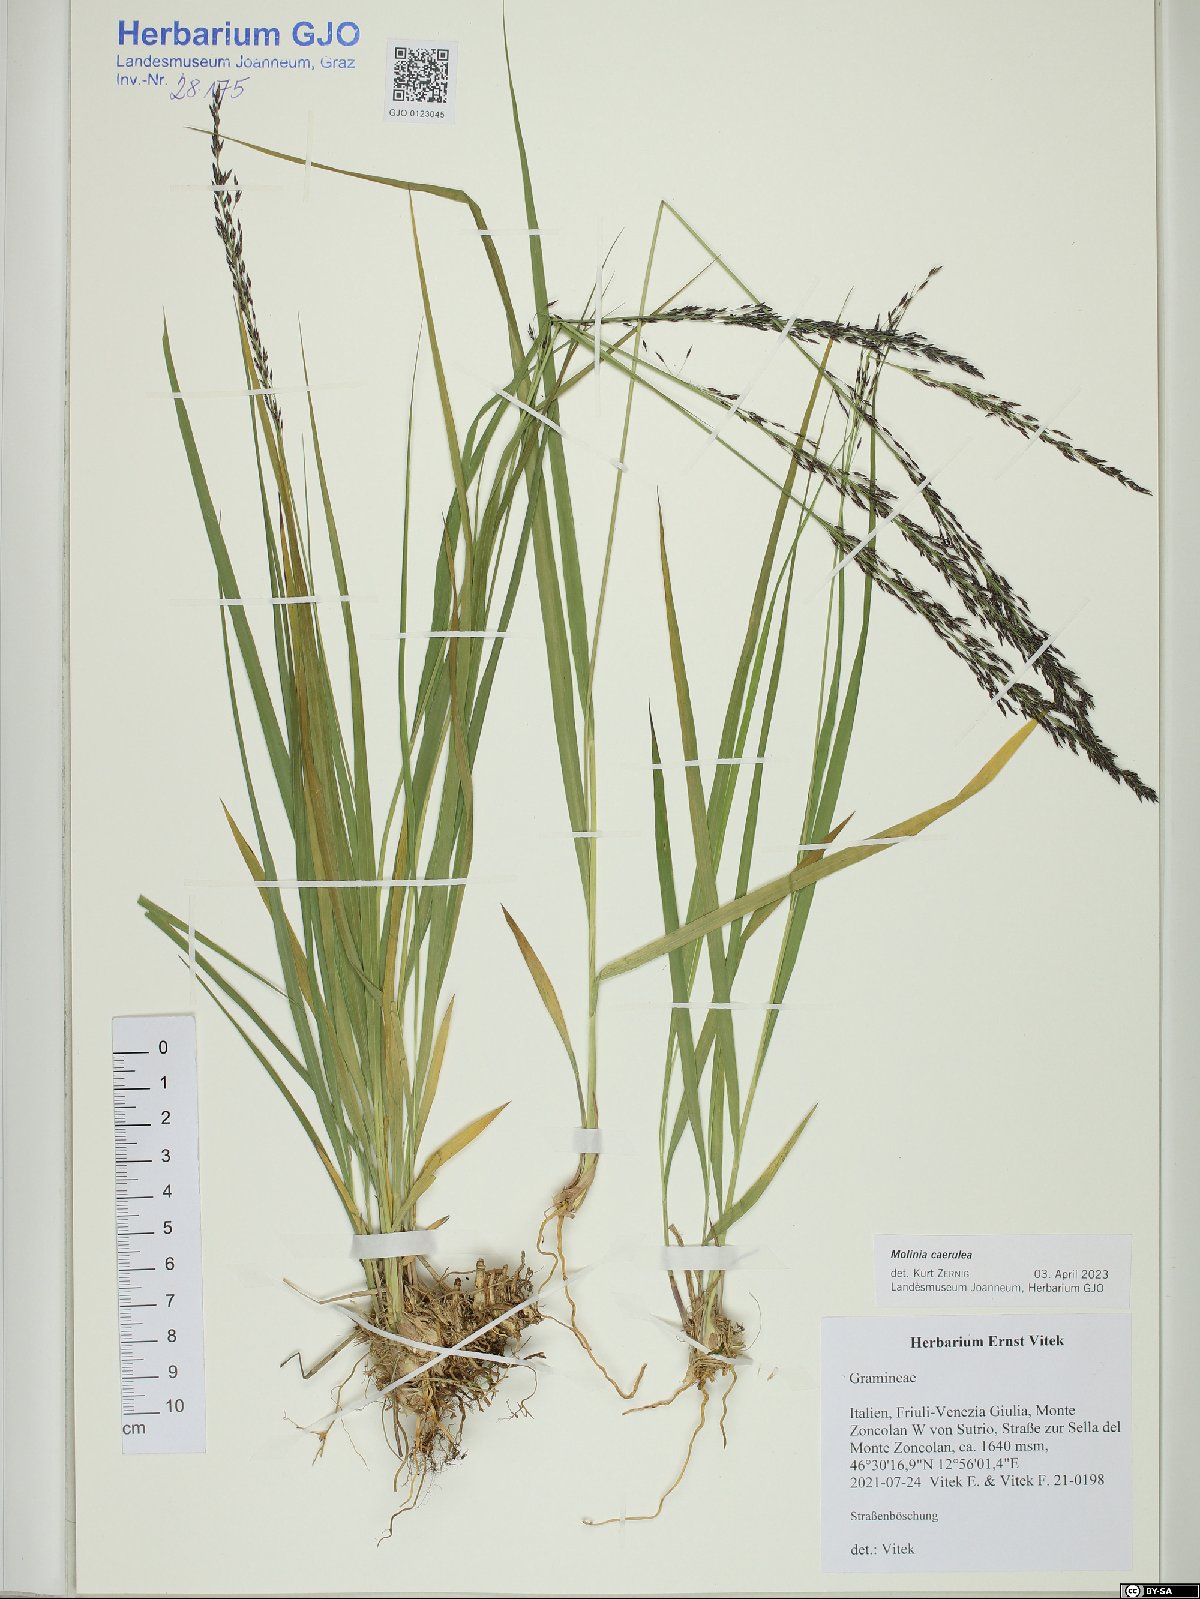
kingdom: Plantae
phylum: Tracheophyta
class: Liliopsida
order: Poales
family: Poaceae
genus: Molinia
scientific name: Molinia caerulea
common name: Purple moor-grass
